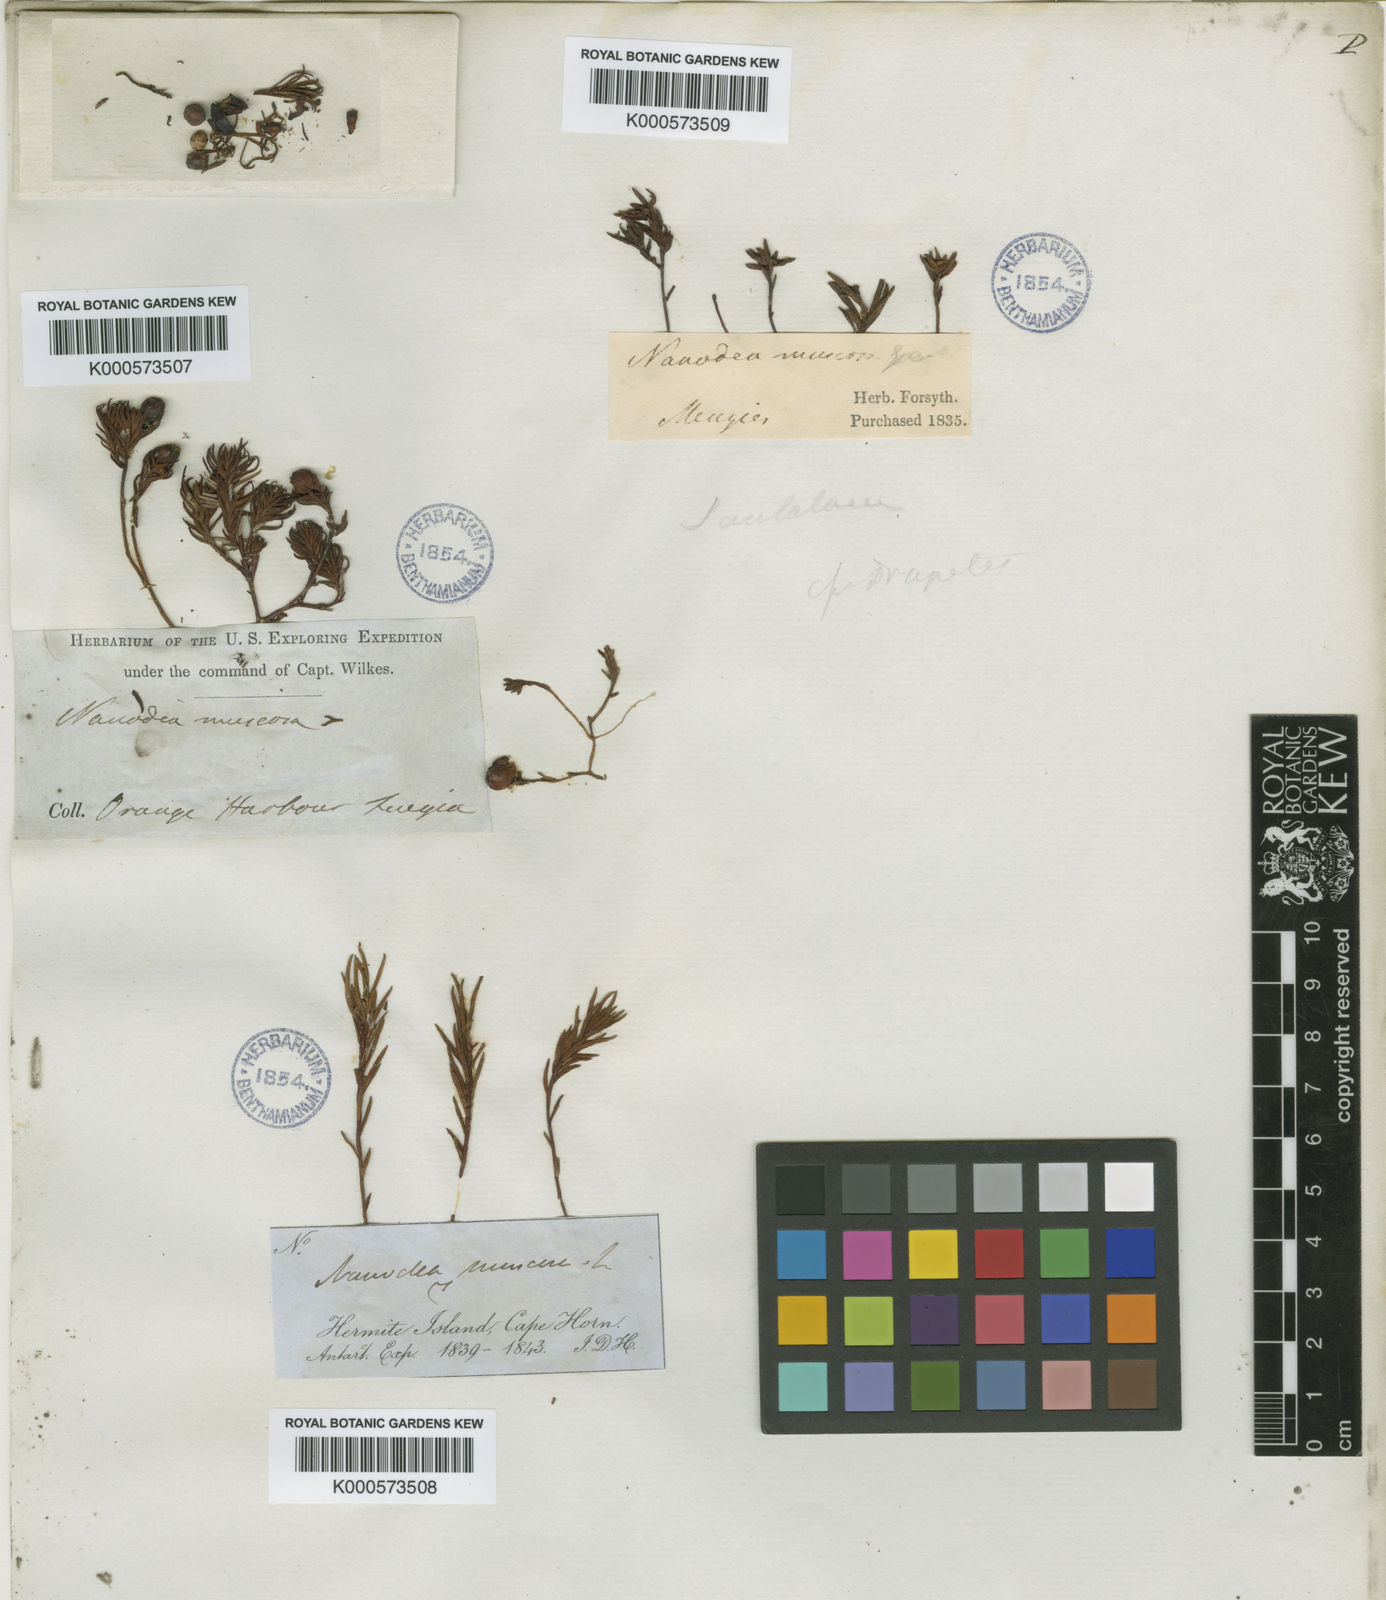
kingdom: Plantae
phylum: Tracheophyta
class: Magnoliopsida
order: Santalales
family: Nanodeaceae
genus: Nanodea
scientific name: Nanodea muscosa
